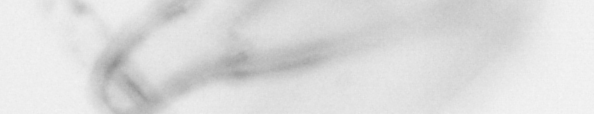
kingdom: Animalia
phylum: Chaetognatha
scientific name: Chaetognatha
